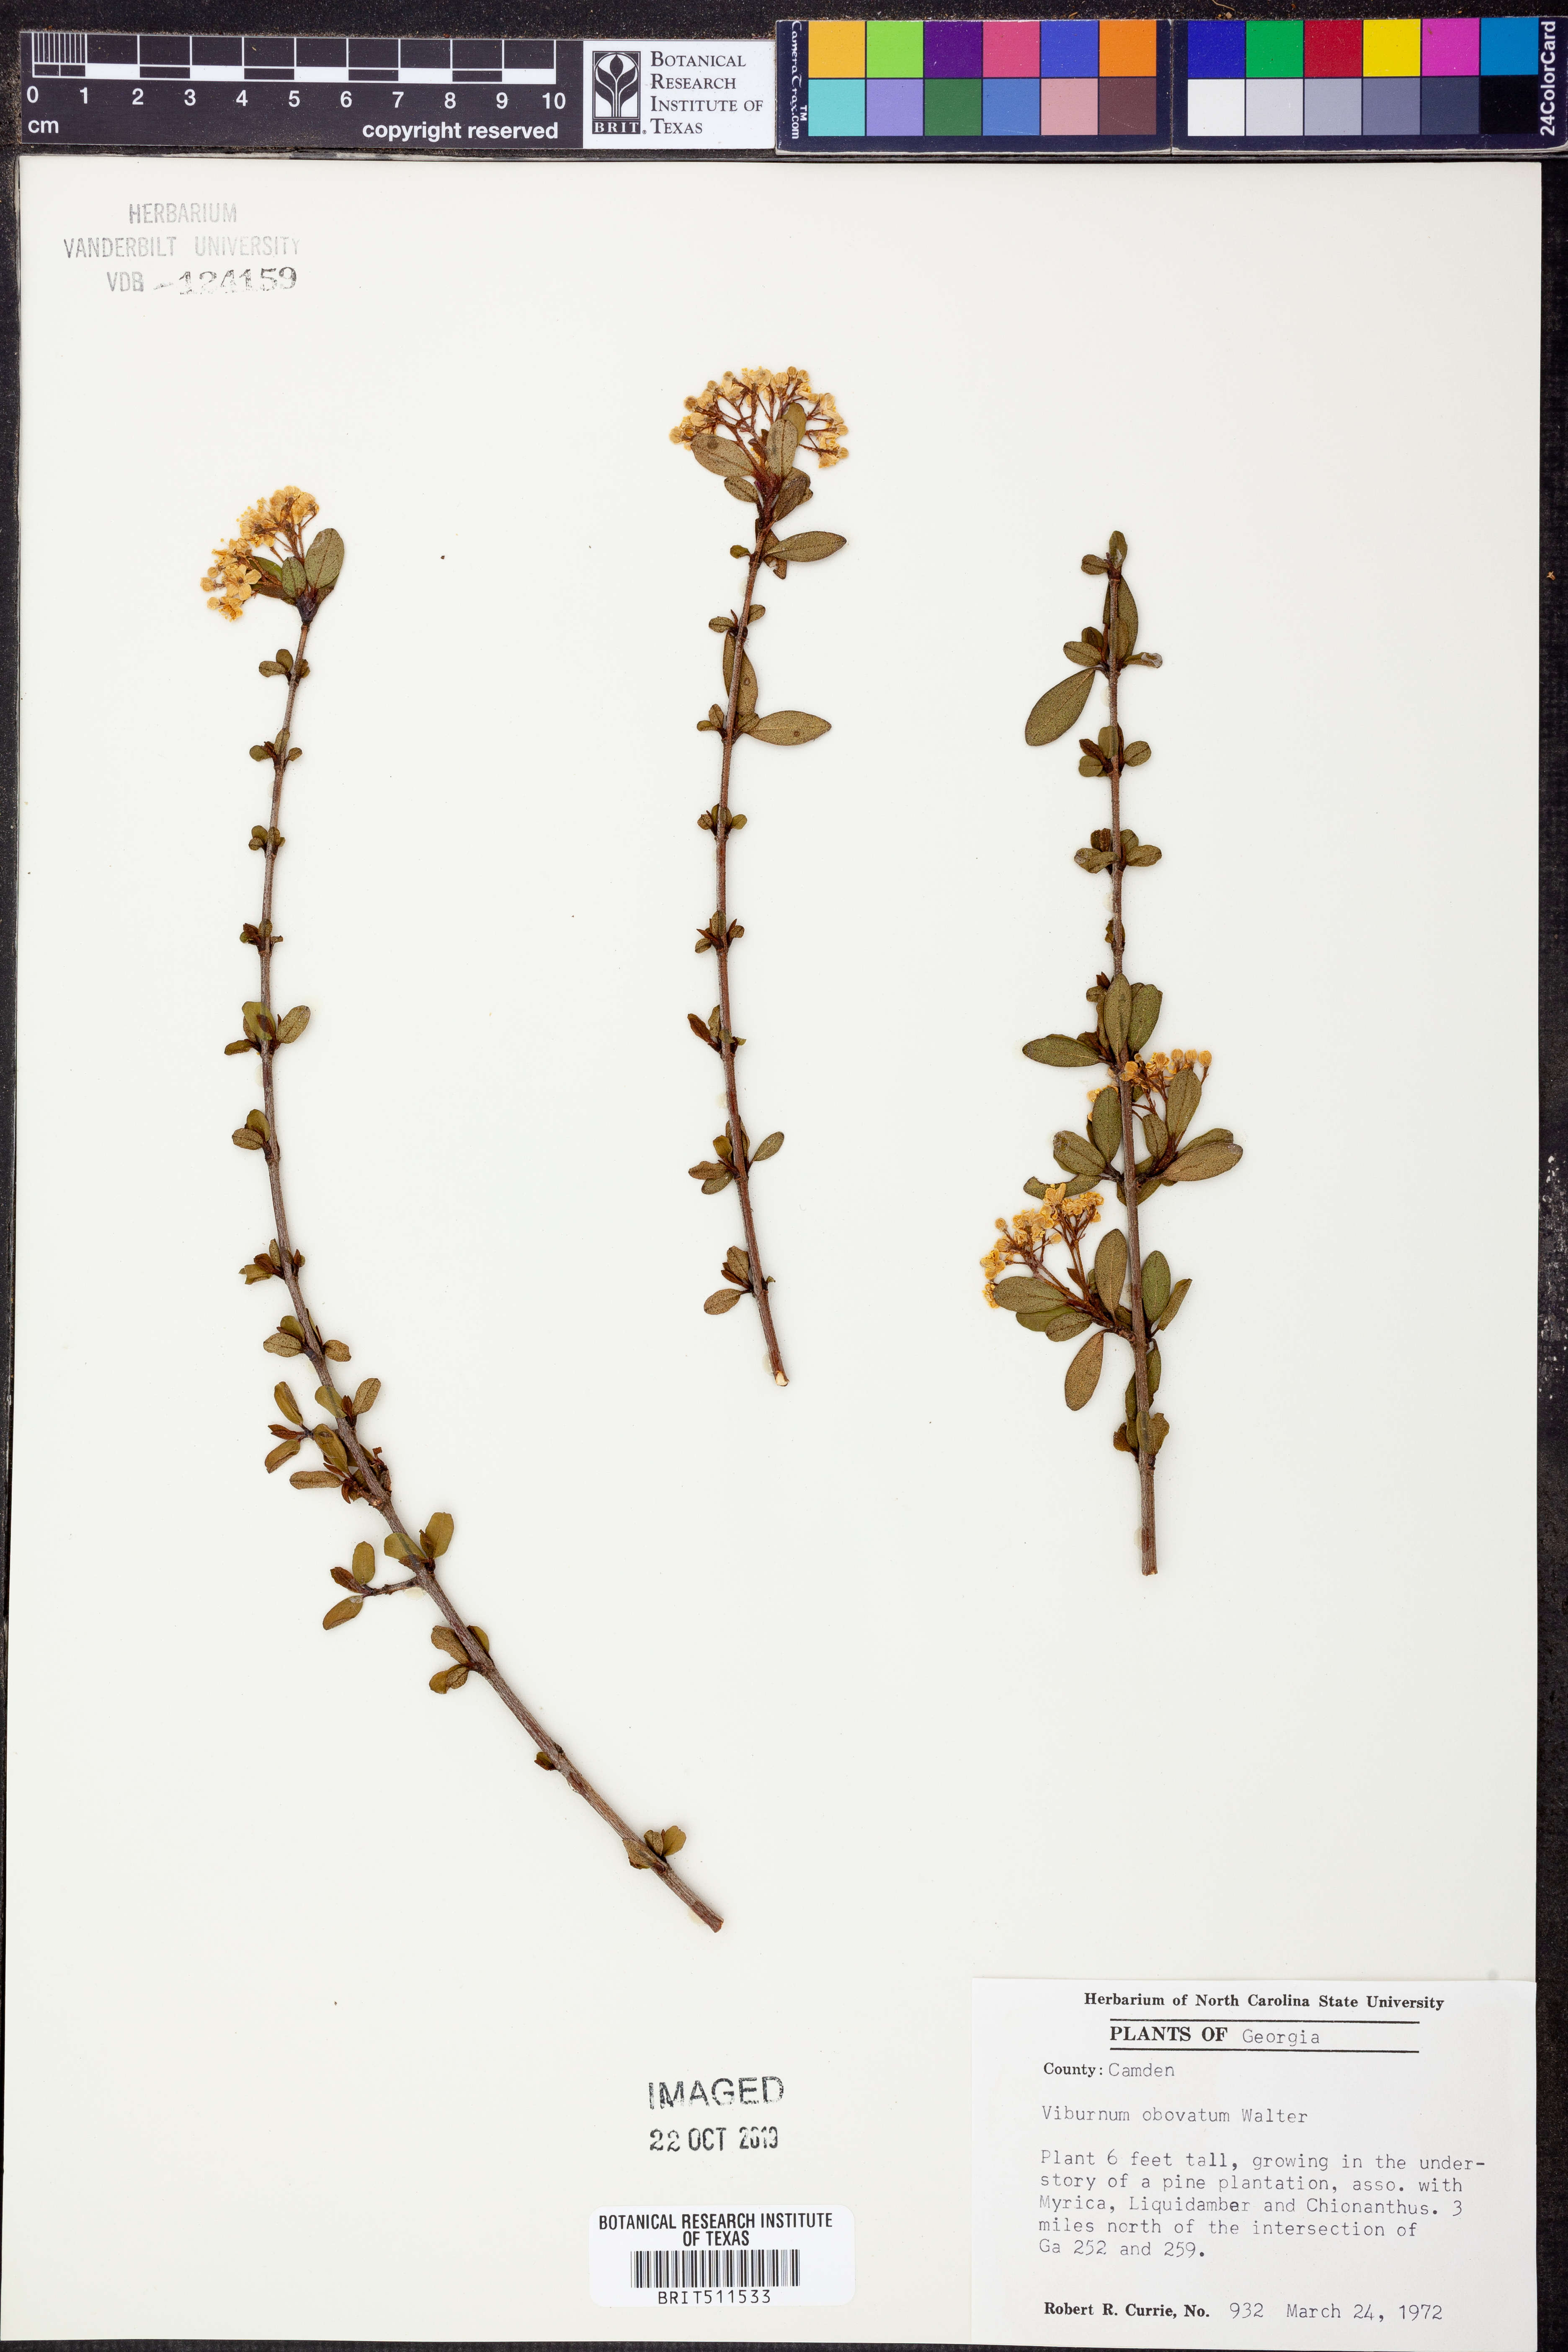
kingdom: Plantae
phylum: Tracheophyta
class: Magnoliopsida
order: Dipsacales
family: Viburnaceae
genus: Viburnum
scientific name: Viburnum obovatum
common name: Walter's viburnum
